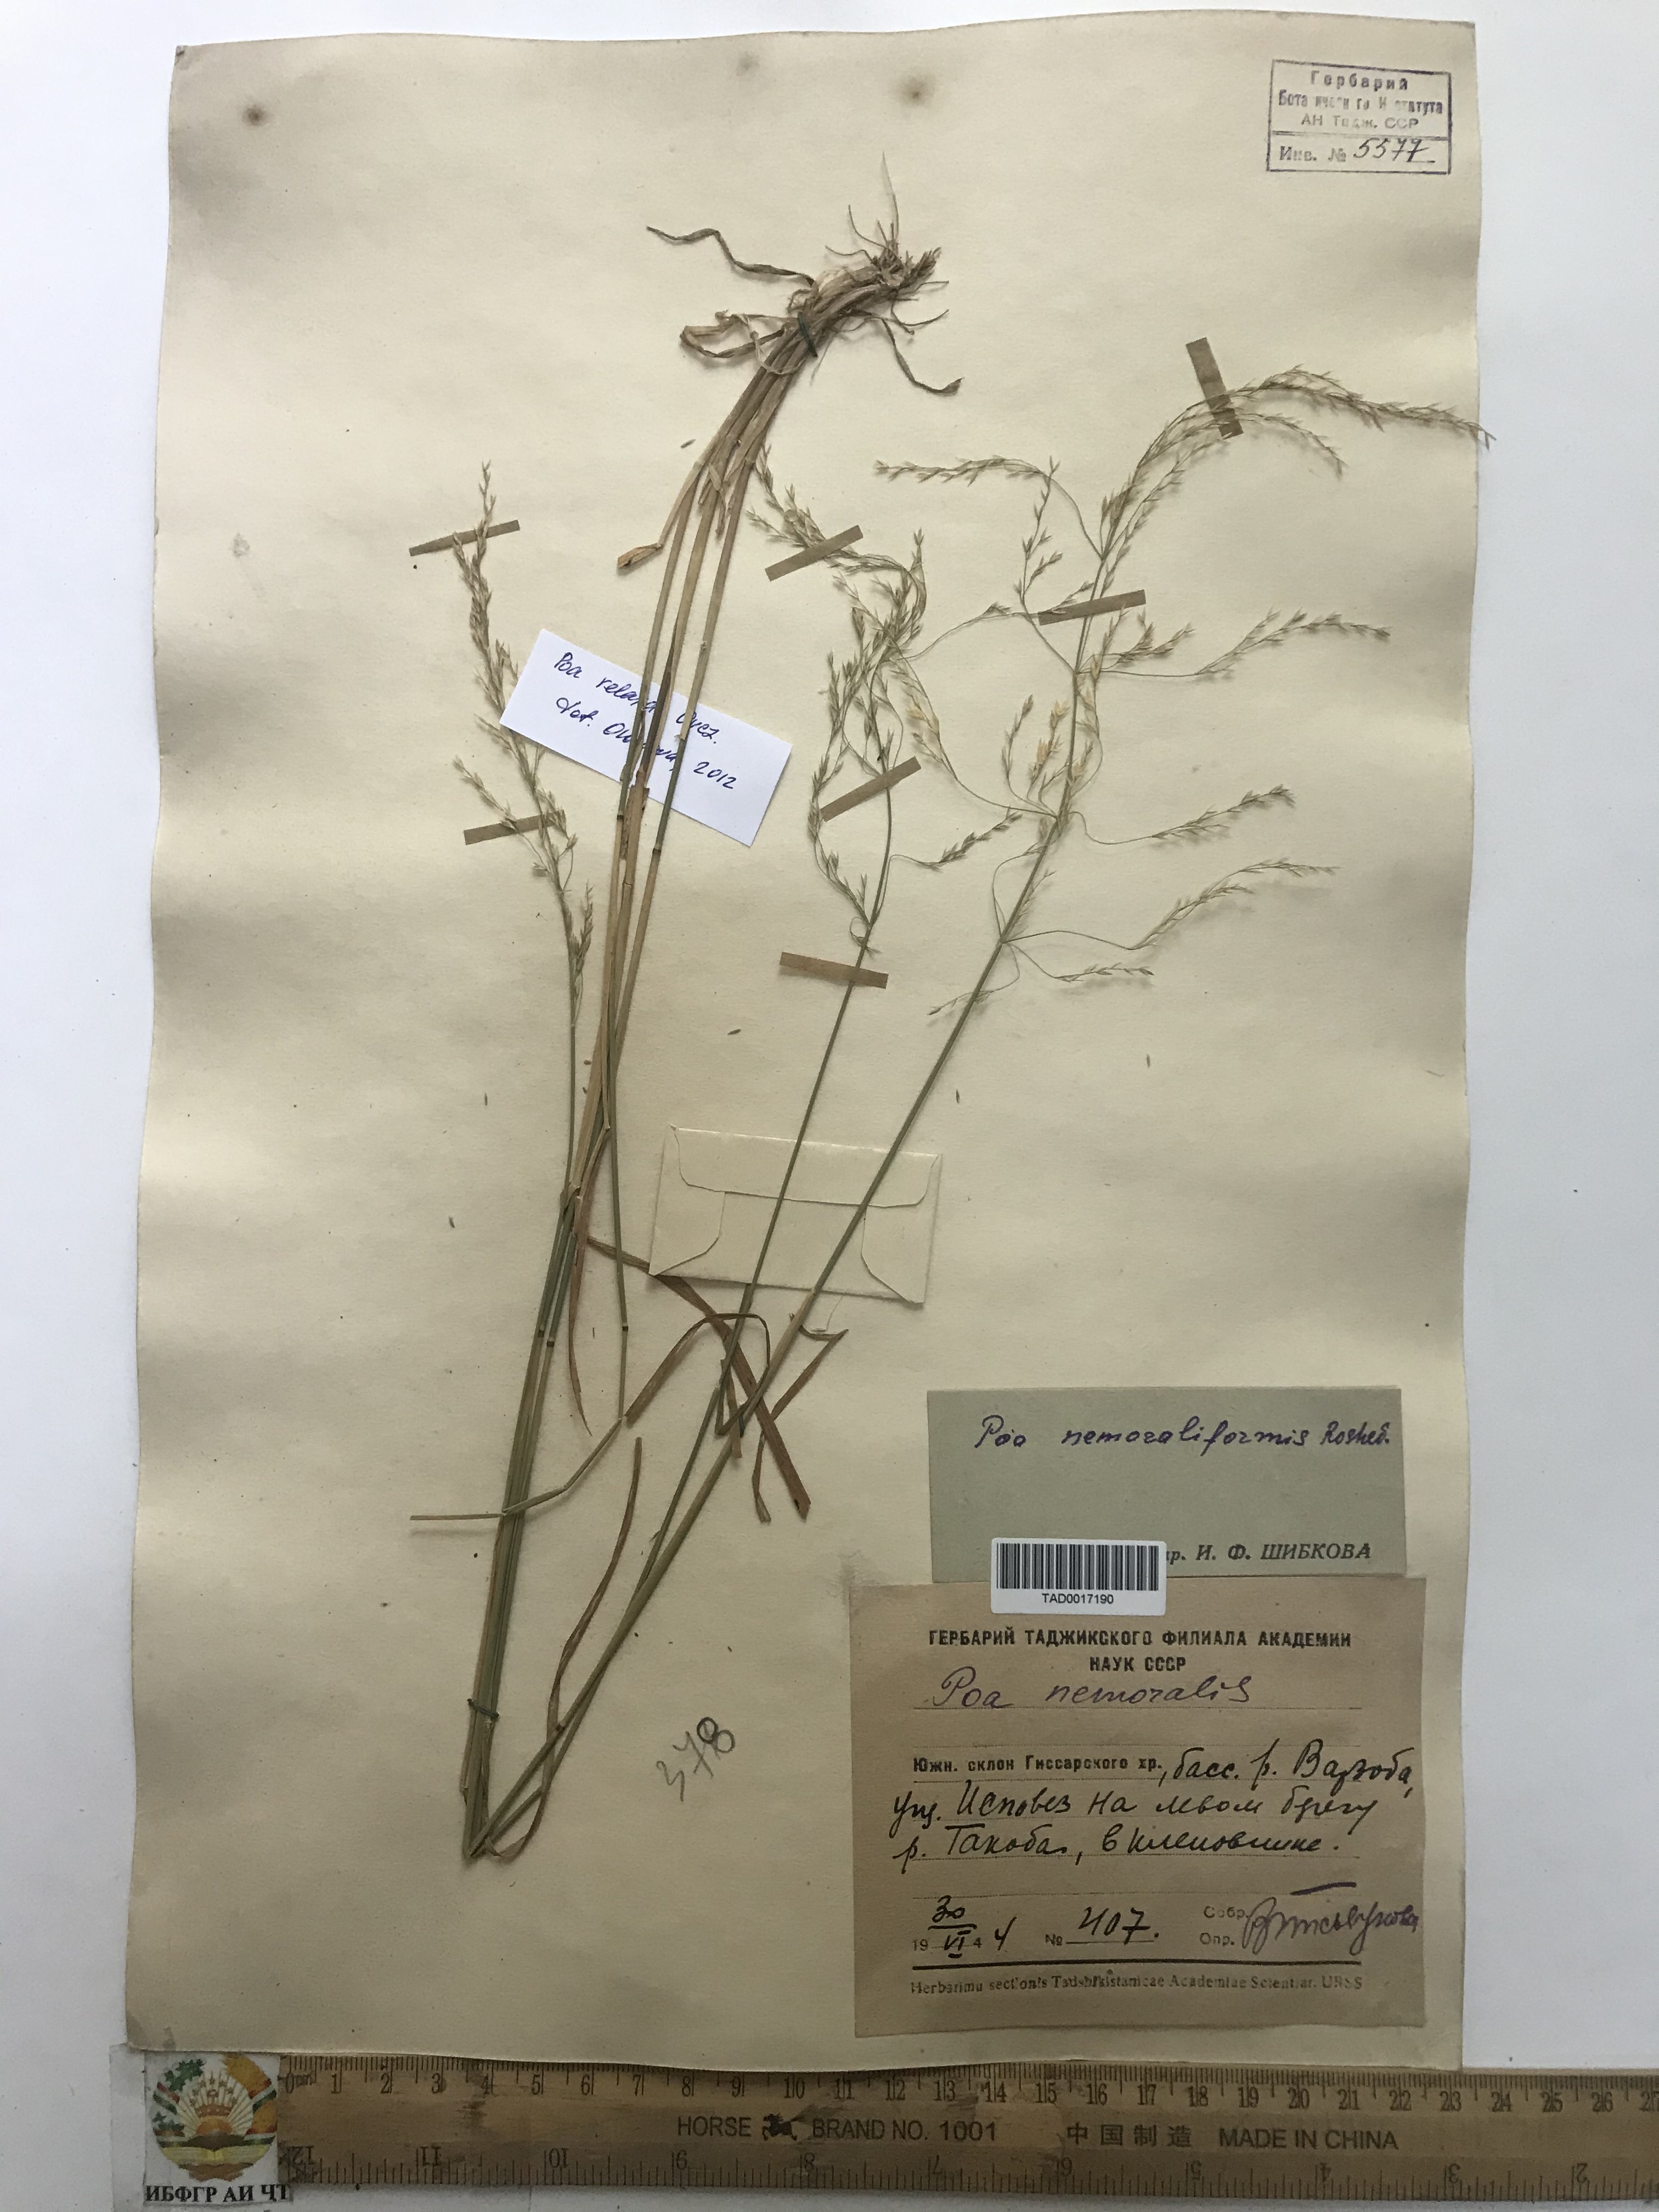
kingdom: Plantae
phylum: Tracheophyta
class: Liliopsida
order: Poales
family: Poaceae
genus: Poa
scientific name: Poa urssulensis
